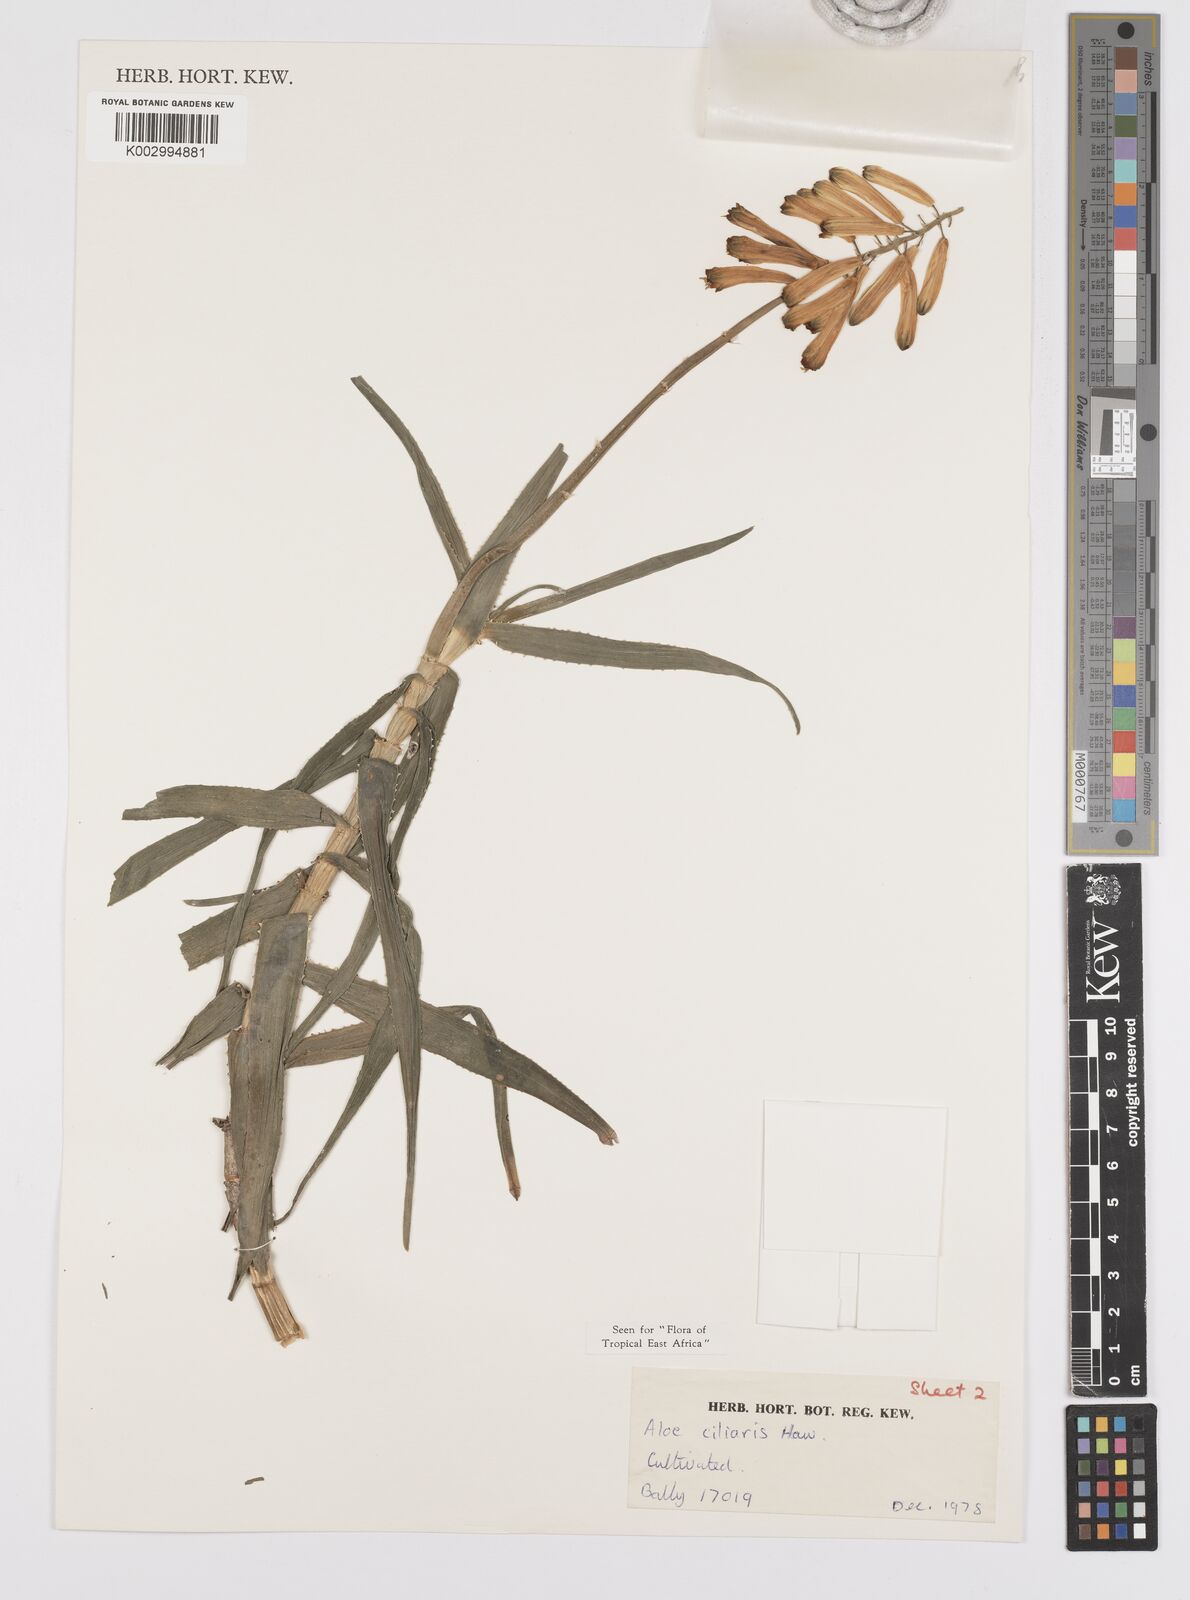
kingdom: Plantae
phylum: Tracheophyta
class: Liliopsida
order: Asparagales
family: Asphodelaceae
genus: Aloe
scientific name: Aloe citrina
